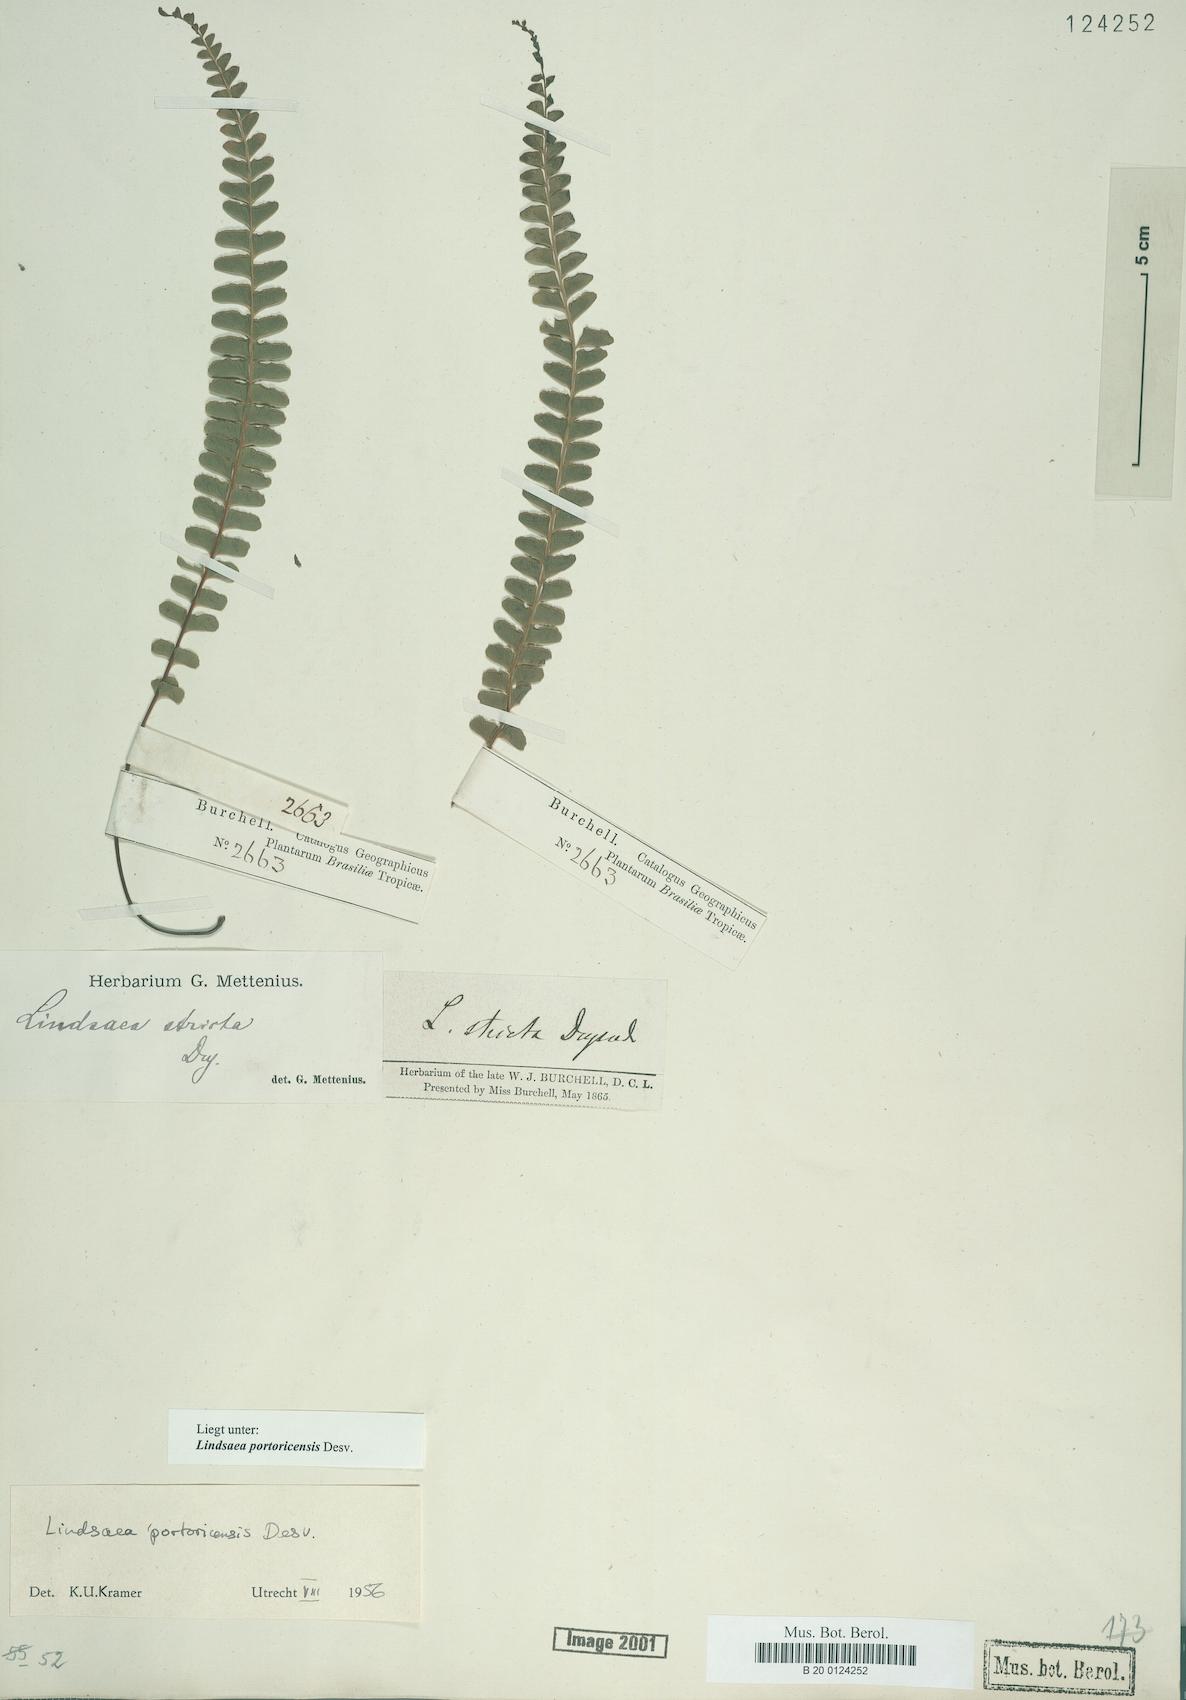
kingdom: Plantae
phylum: Tracheophyta
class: Polypodiopsida
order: Polypodiales
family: Lindsaeaceae
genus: Lindsaea
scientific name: Lindsaea portoricensis
